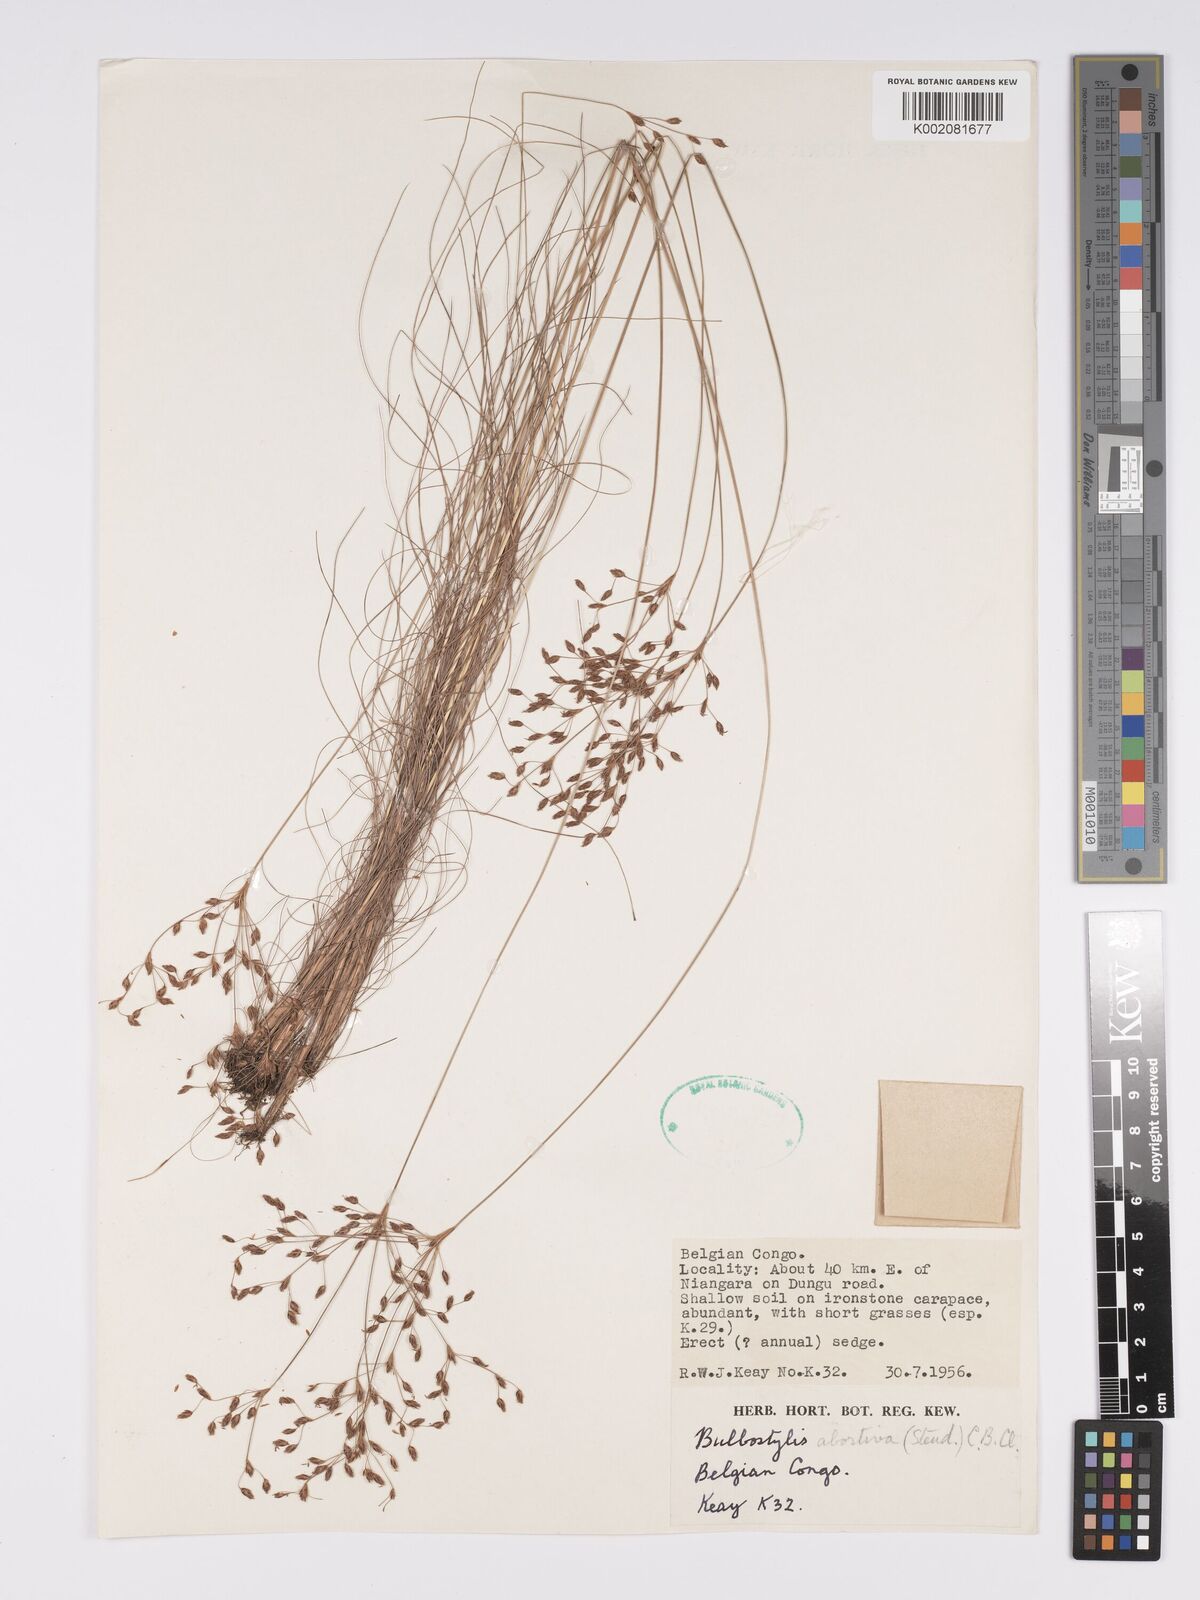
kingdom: Plantae
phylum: Tracheophyta
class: Liliopsida
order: Poales
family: Cyperaceae
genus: Bulbostylis
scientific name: Bulbostylis abortiva
